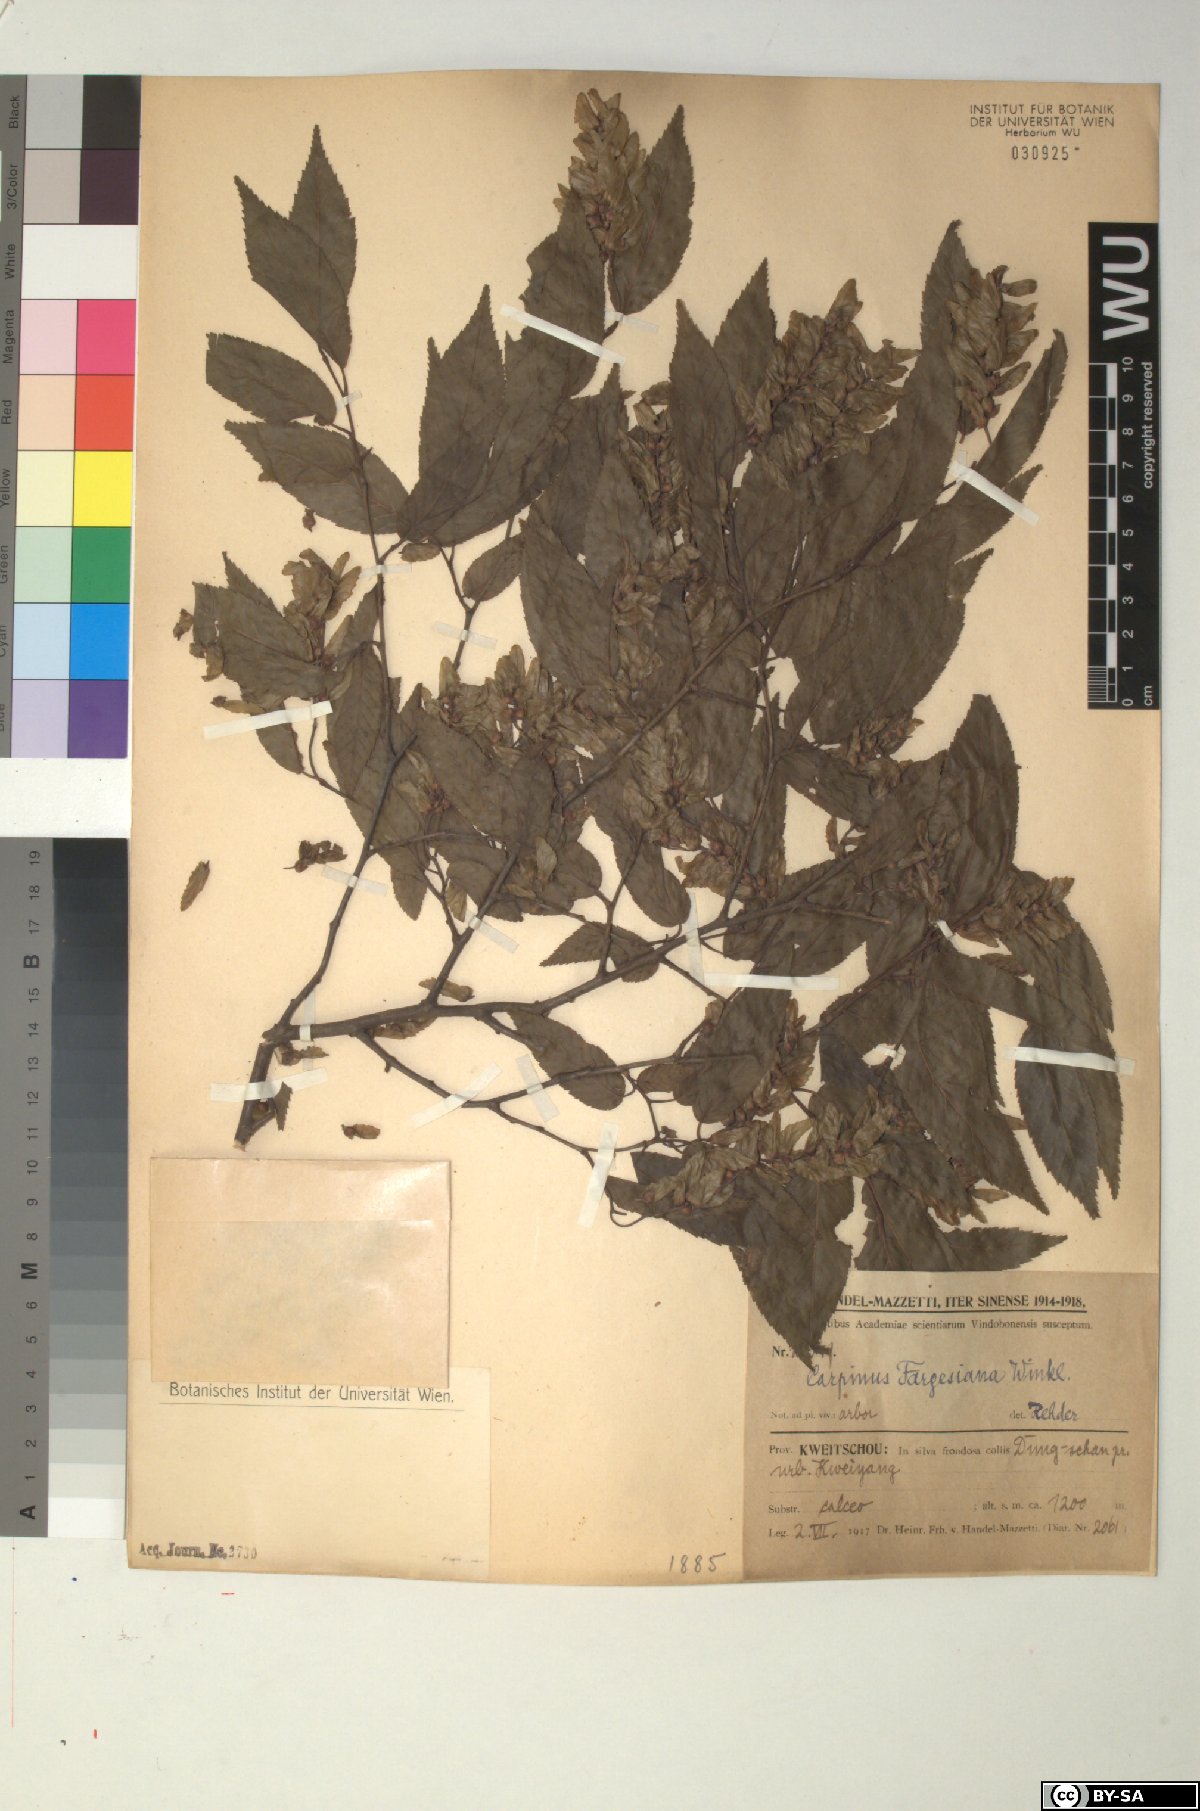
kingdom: Plantae
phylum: Tracheophyta
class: Magnoliopsida
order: Fagales
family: Betulaceae
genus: Carpinus
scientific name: Carpinus fargesiana
